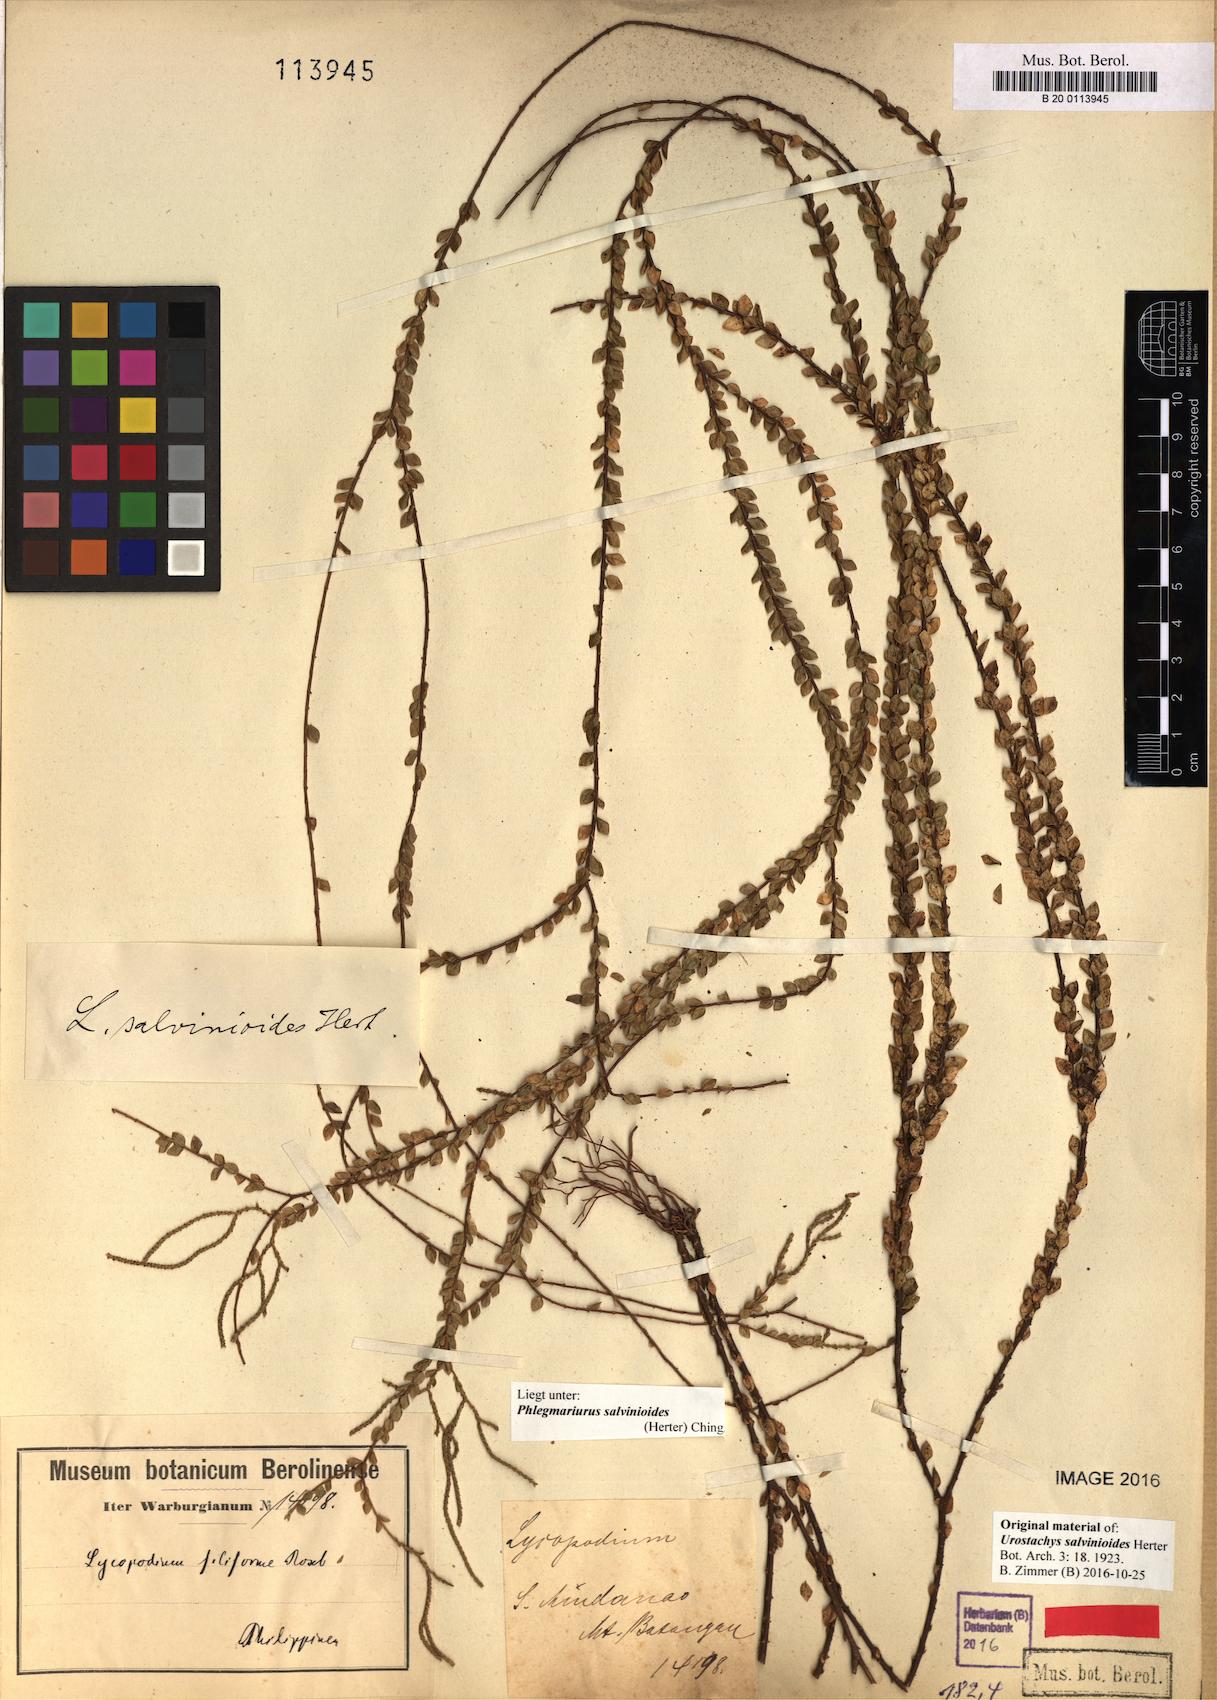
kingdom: Plantae
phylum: Tracheophyta
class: Lycopodiopsida
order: Lycopodiales
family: Lycopodiaceae
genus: Phlegmariurus
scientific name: Phlegmariurus salvinioides
